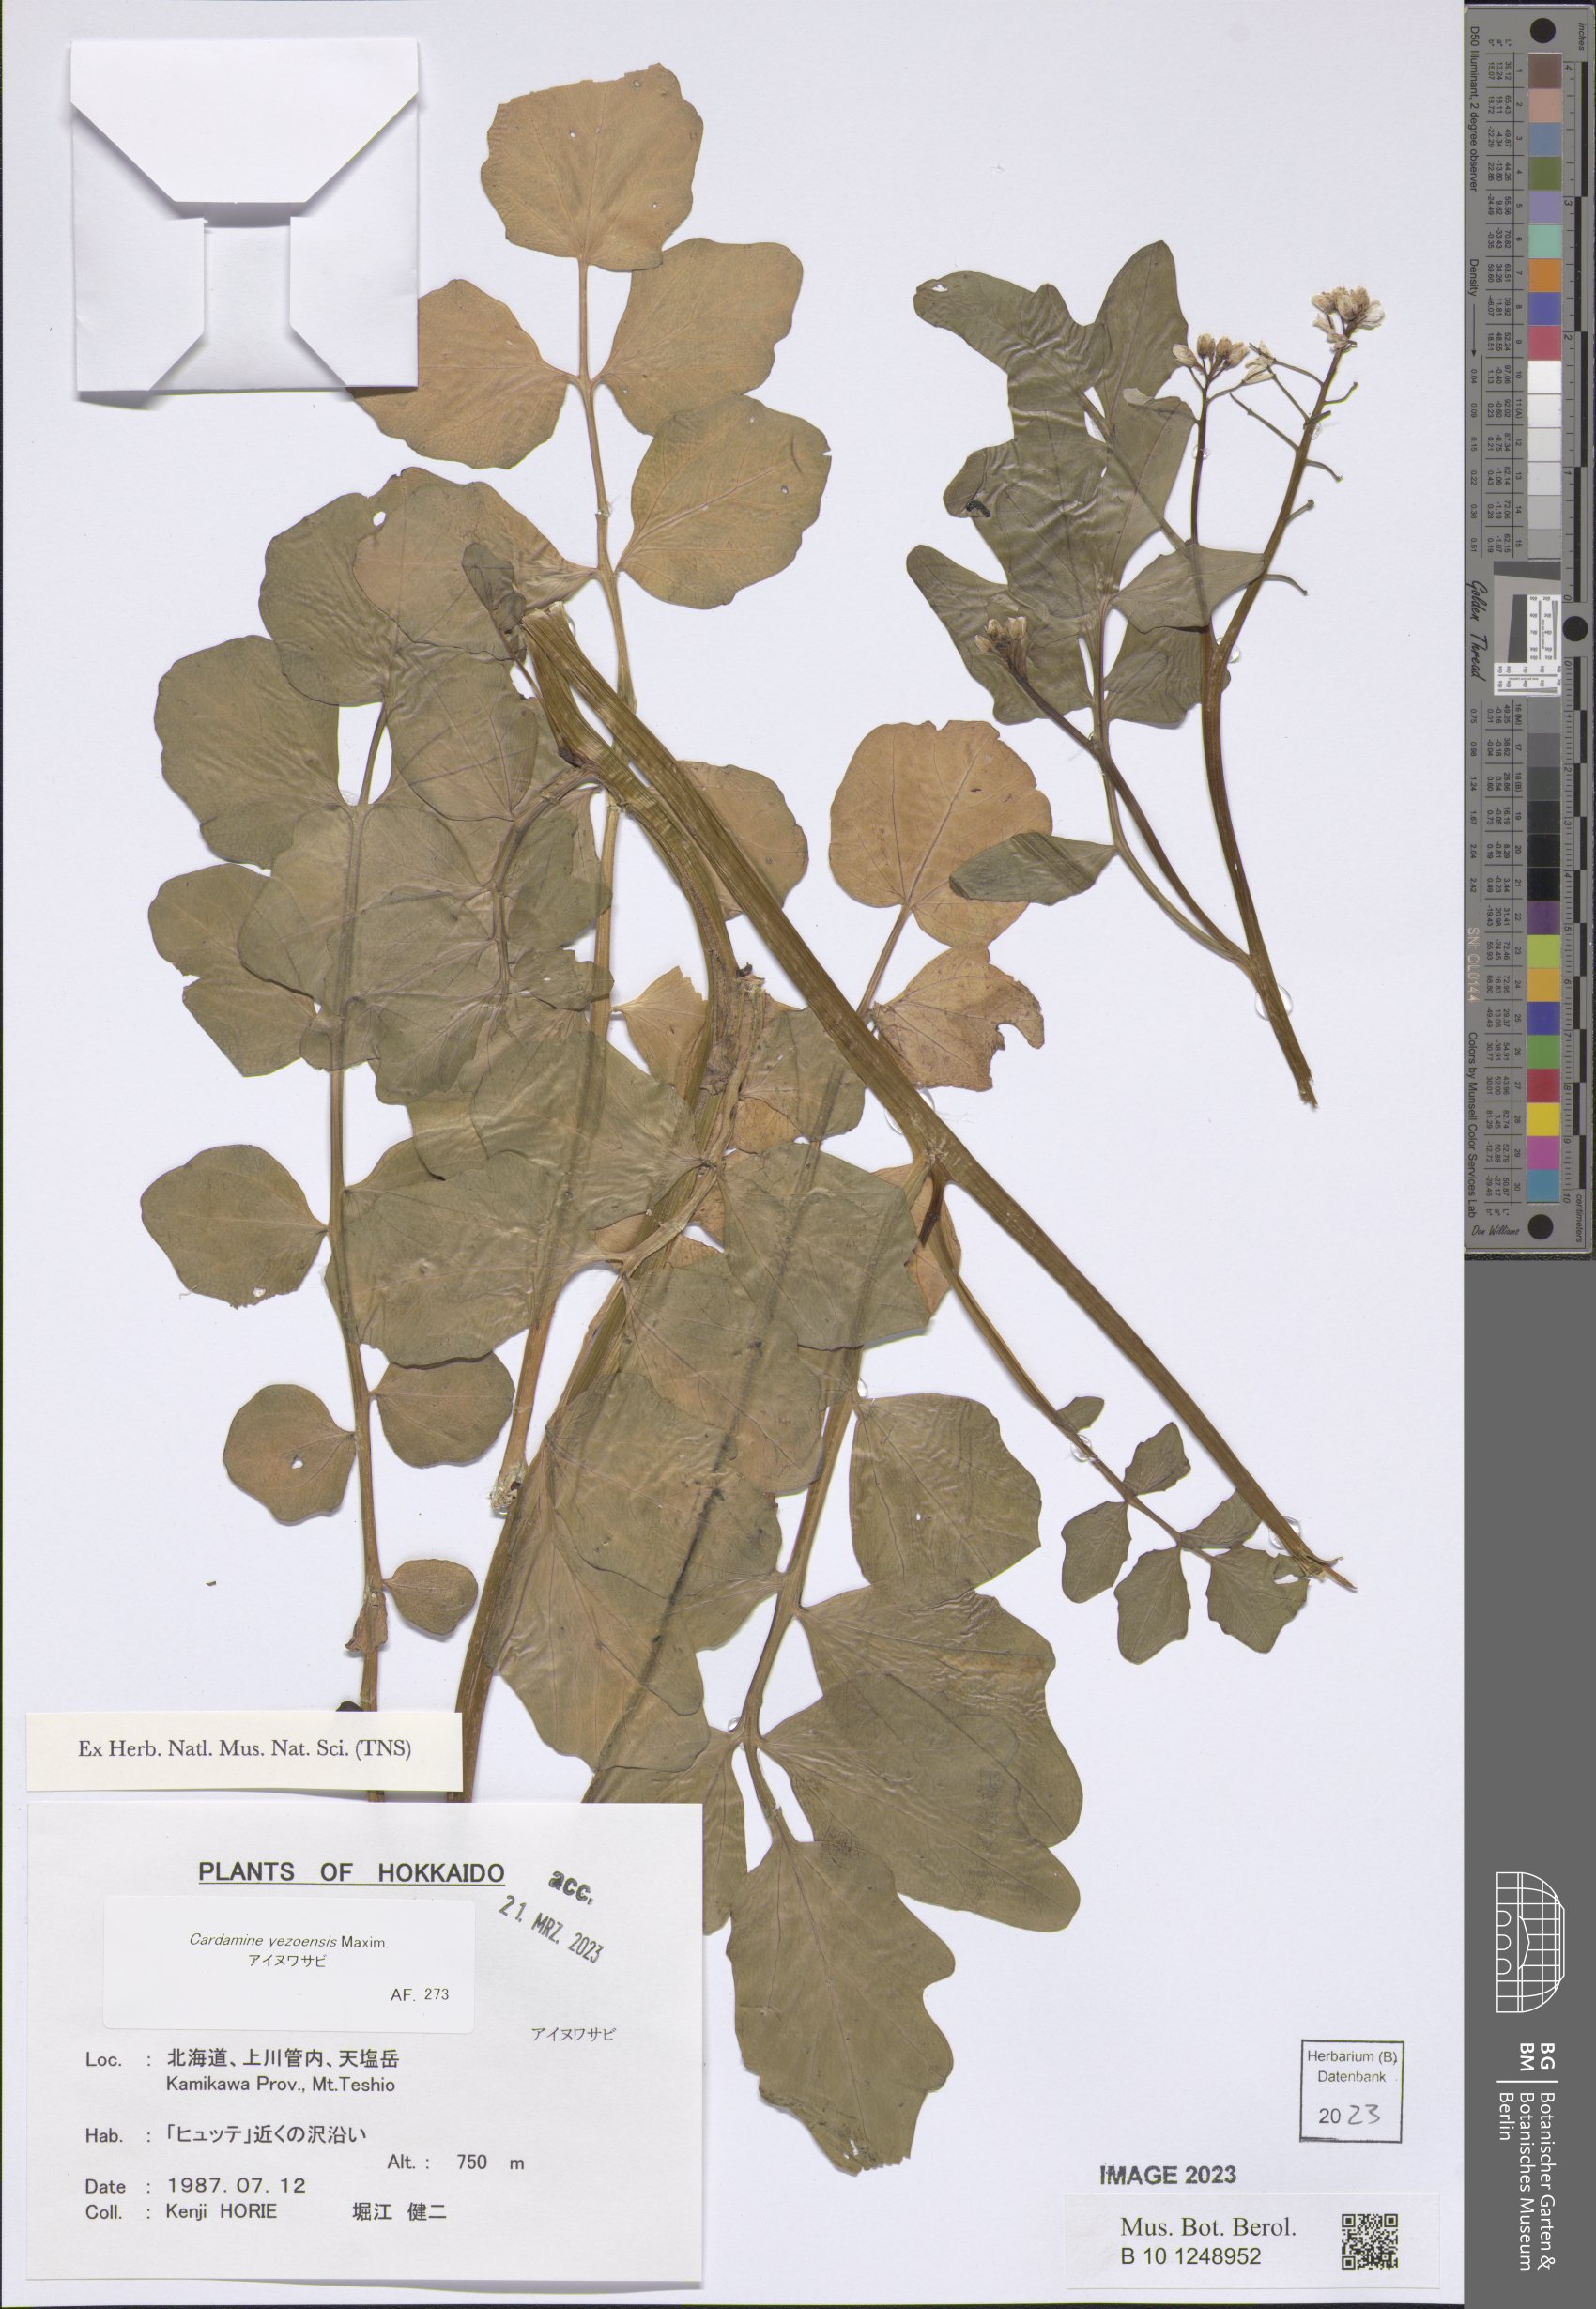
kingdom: Plantae
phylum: Tracheophyta
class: Magnoliopsida
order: Brassicales
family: Brassicaceae
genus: Cardamine
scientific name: Cardamine yezoensis
